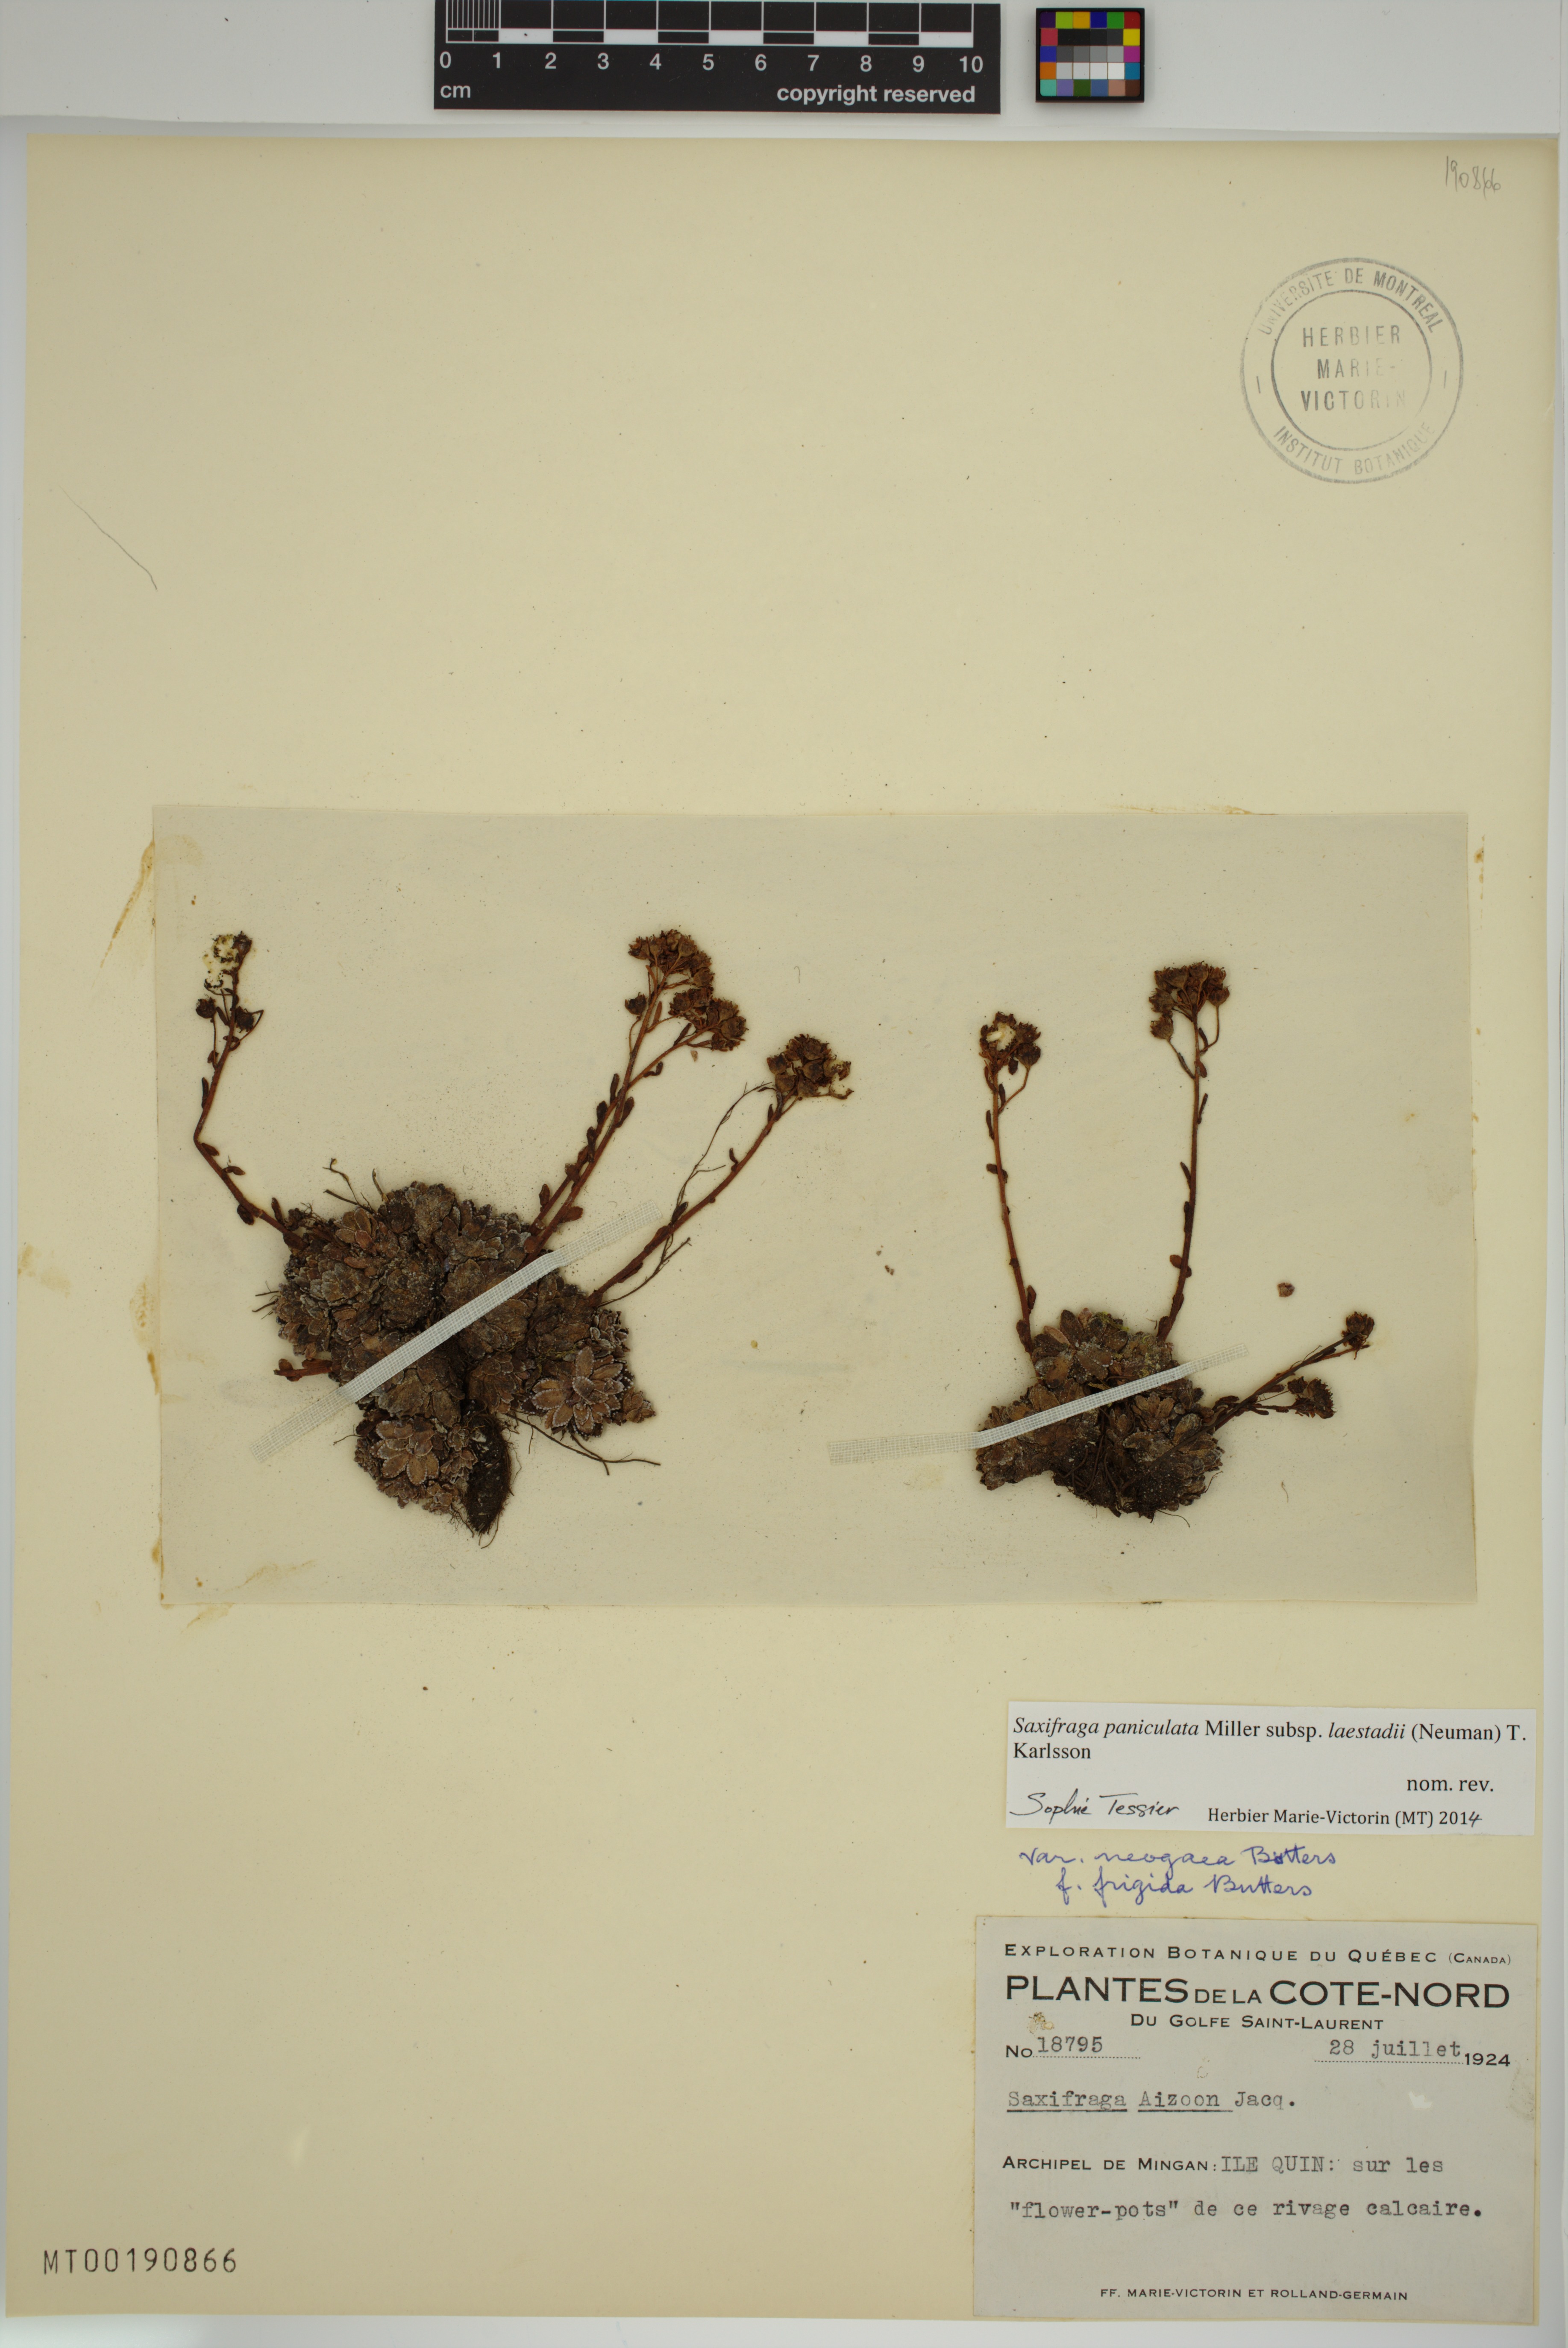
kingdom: Plantae
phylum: Tracheophyta
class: Magnoliopsida
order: Saxifragales
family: Saxifragaceae
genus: Saxifraga
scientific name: Saxifraga paniculata
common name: Livelong saxifrage
